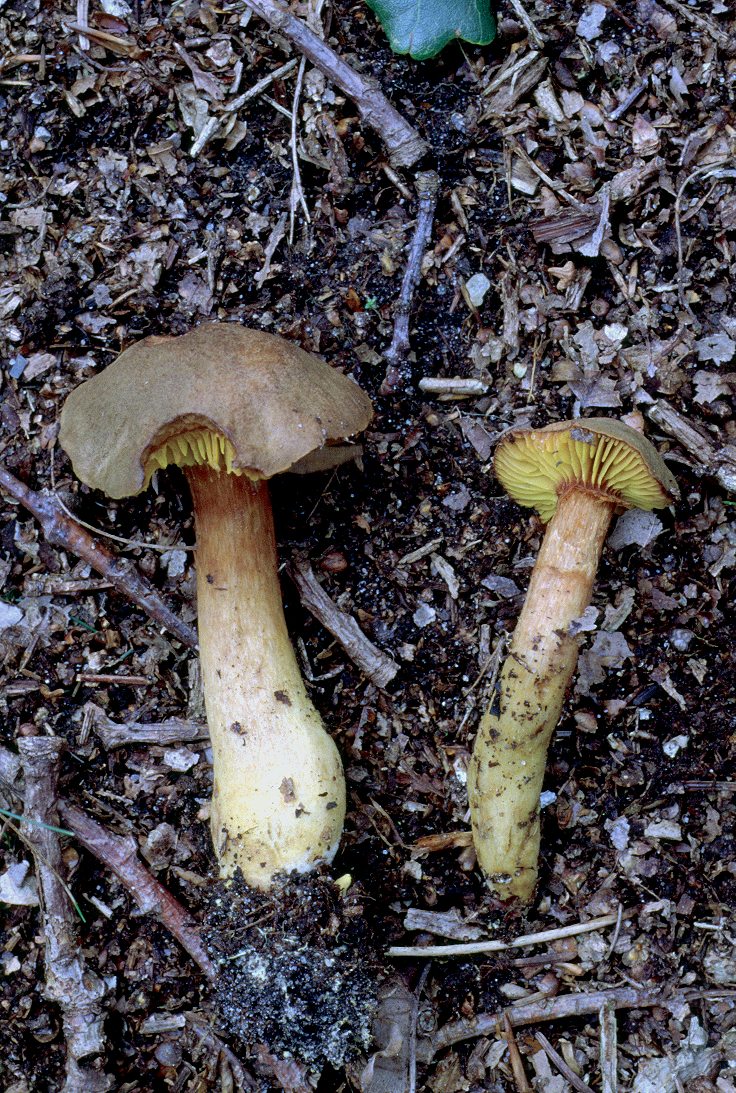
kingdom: Fungi
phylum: Basidiomycota
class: Agaricomycetes
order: Boletales
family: Boletaceae
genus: Phylloporus
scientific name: Phylloporus pelletieri
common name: lamelrørhat
